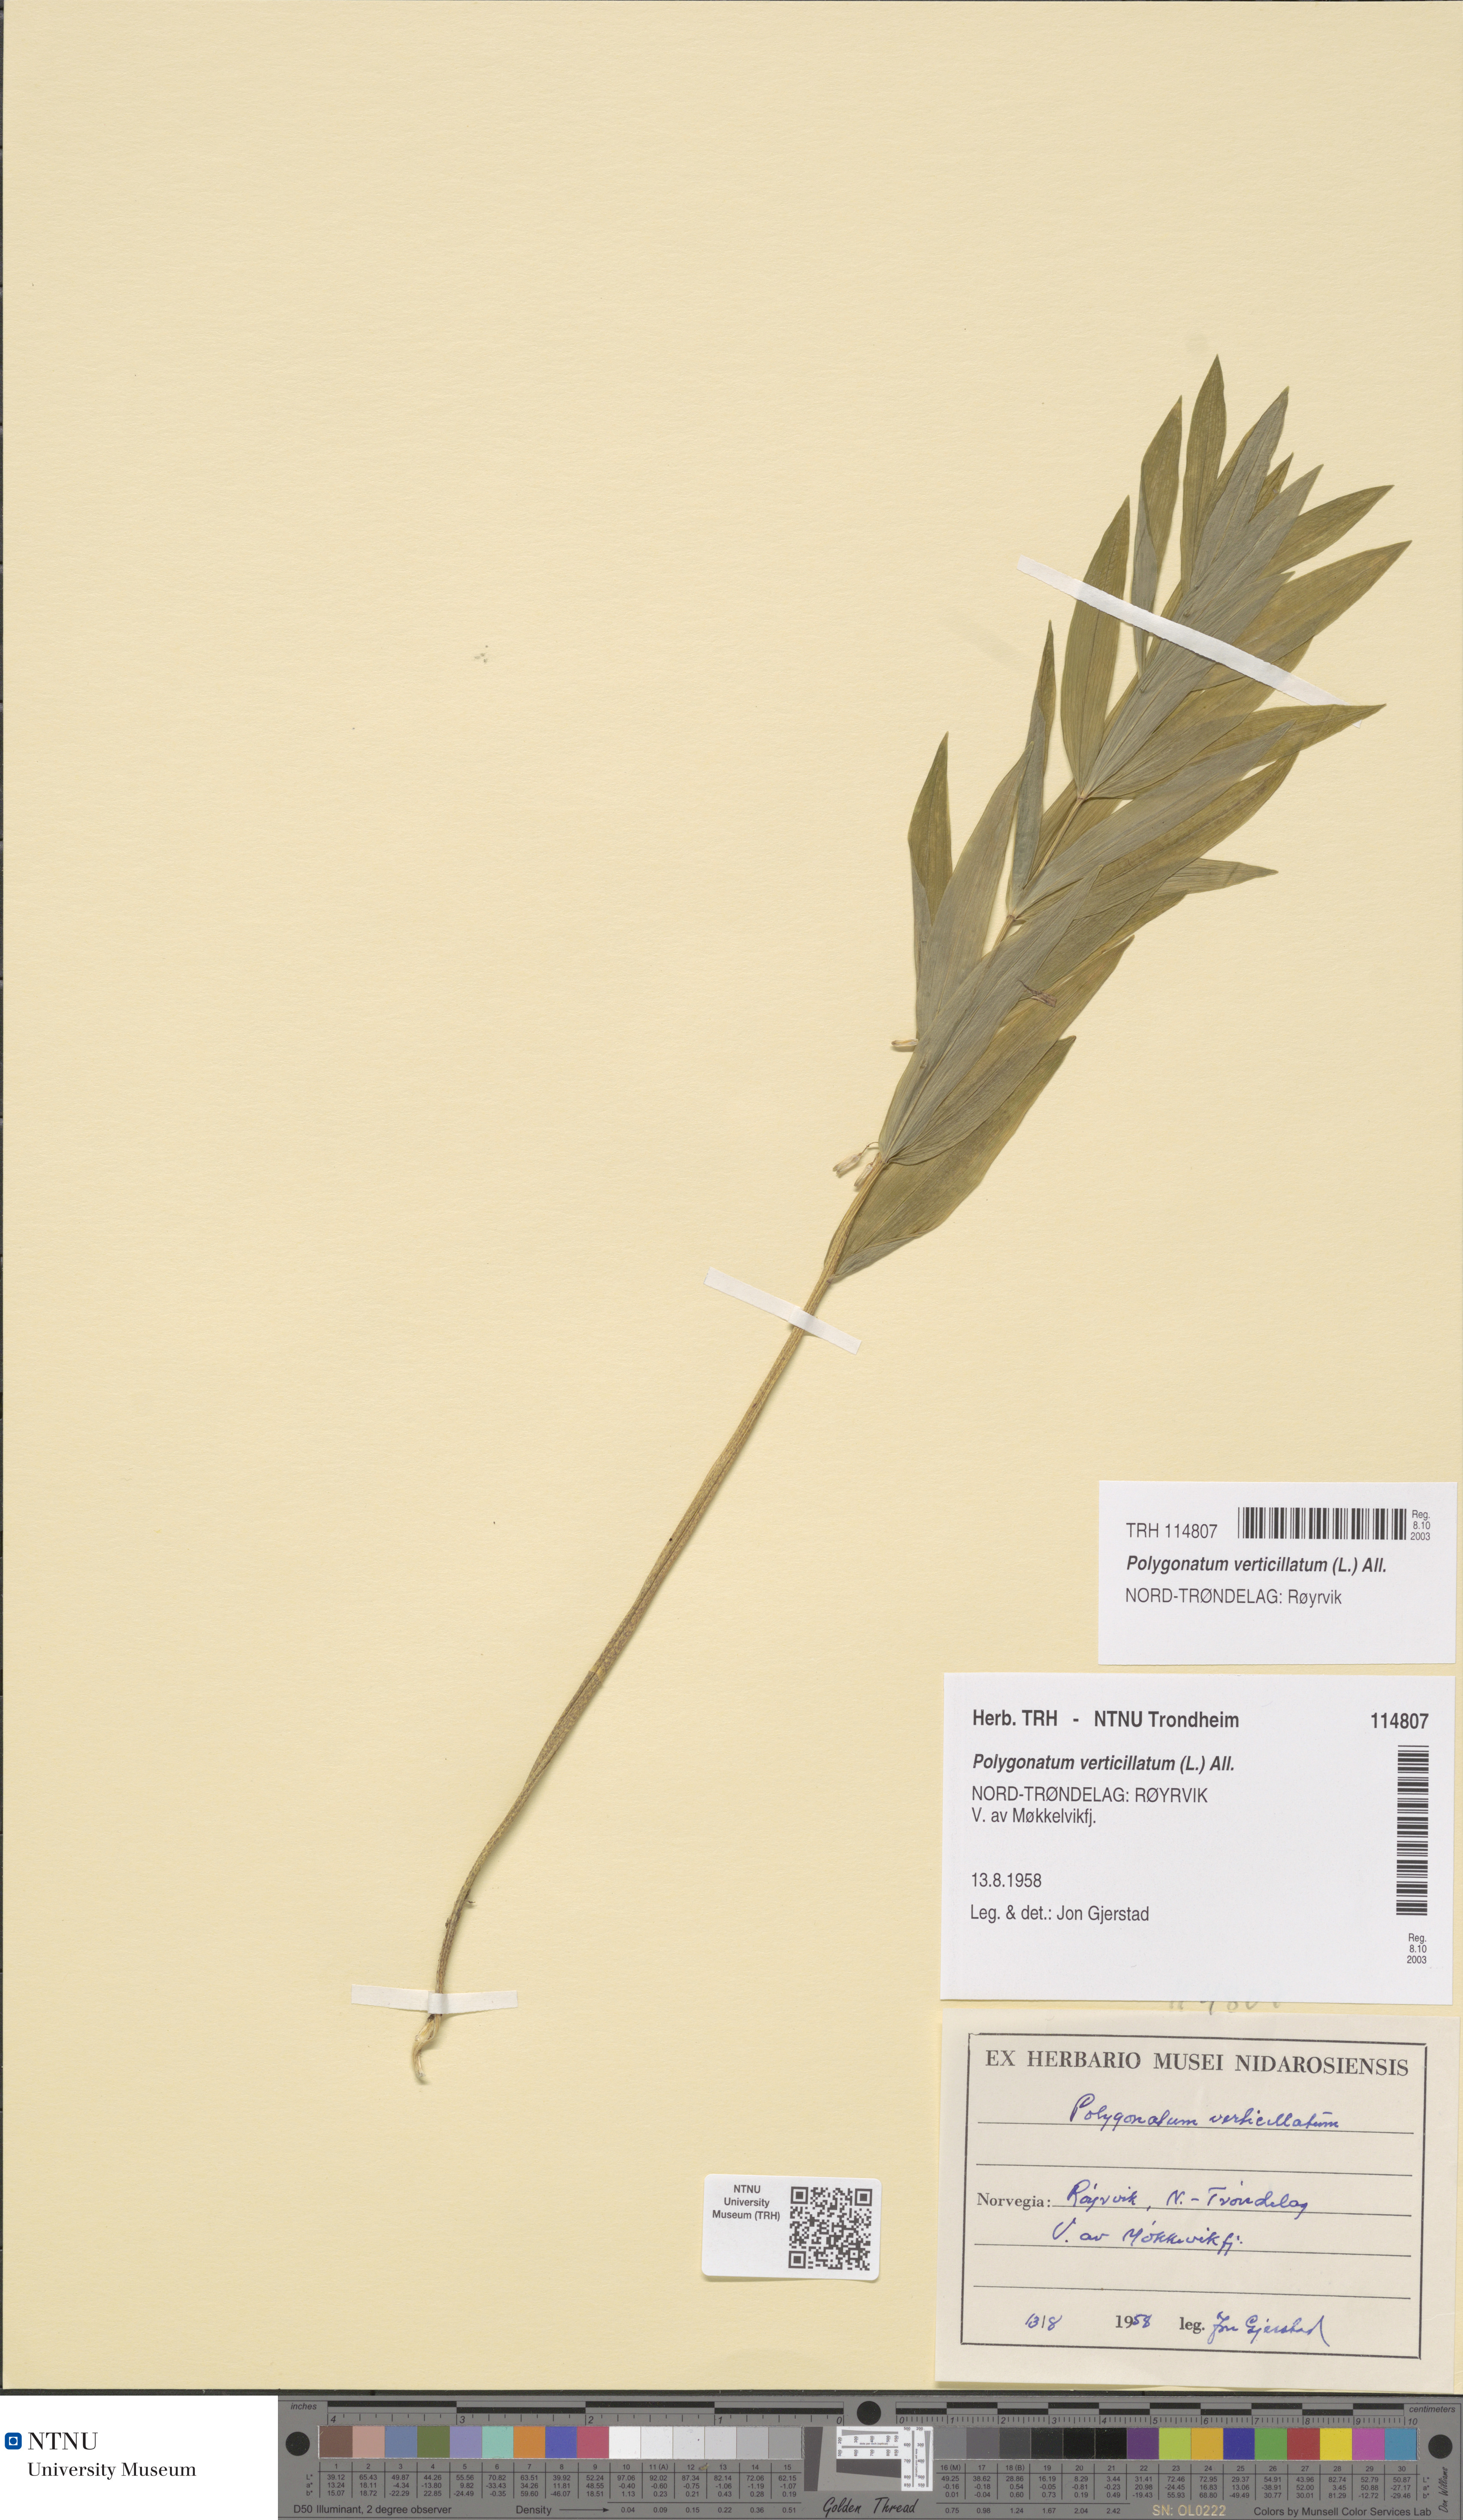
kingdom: Plantae
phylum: Tracheophyta
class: Liliopsida
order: Asparagales
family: Asparagaceae
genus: Polygonatum
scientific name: Polygonatum verticillatum
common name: Whorled solomon's-seal
